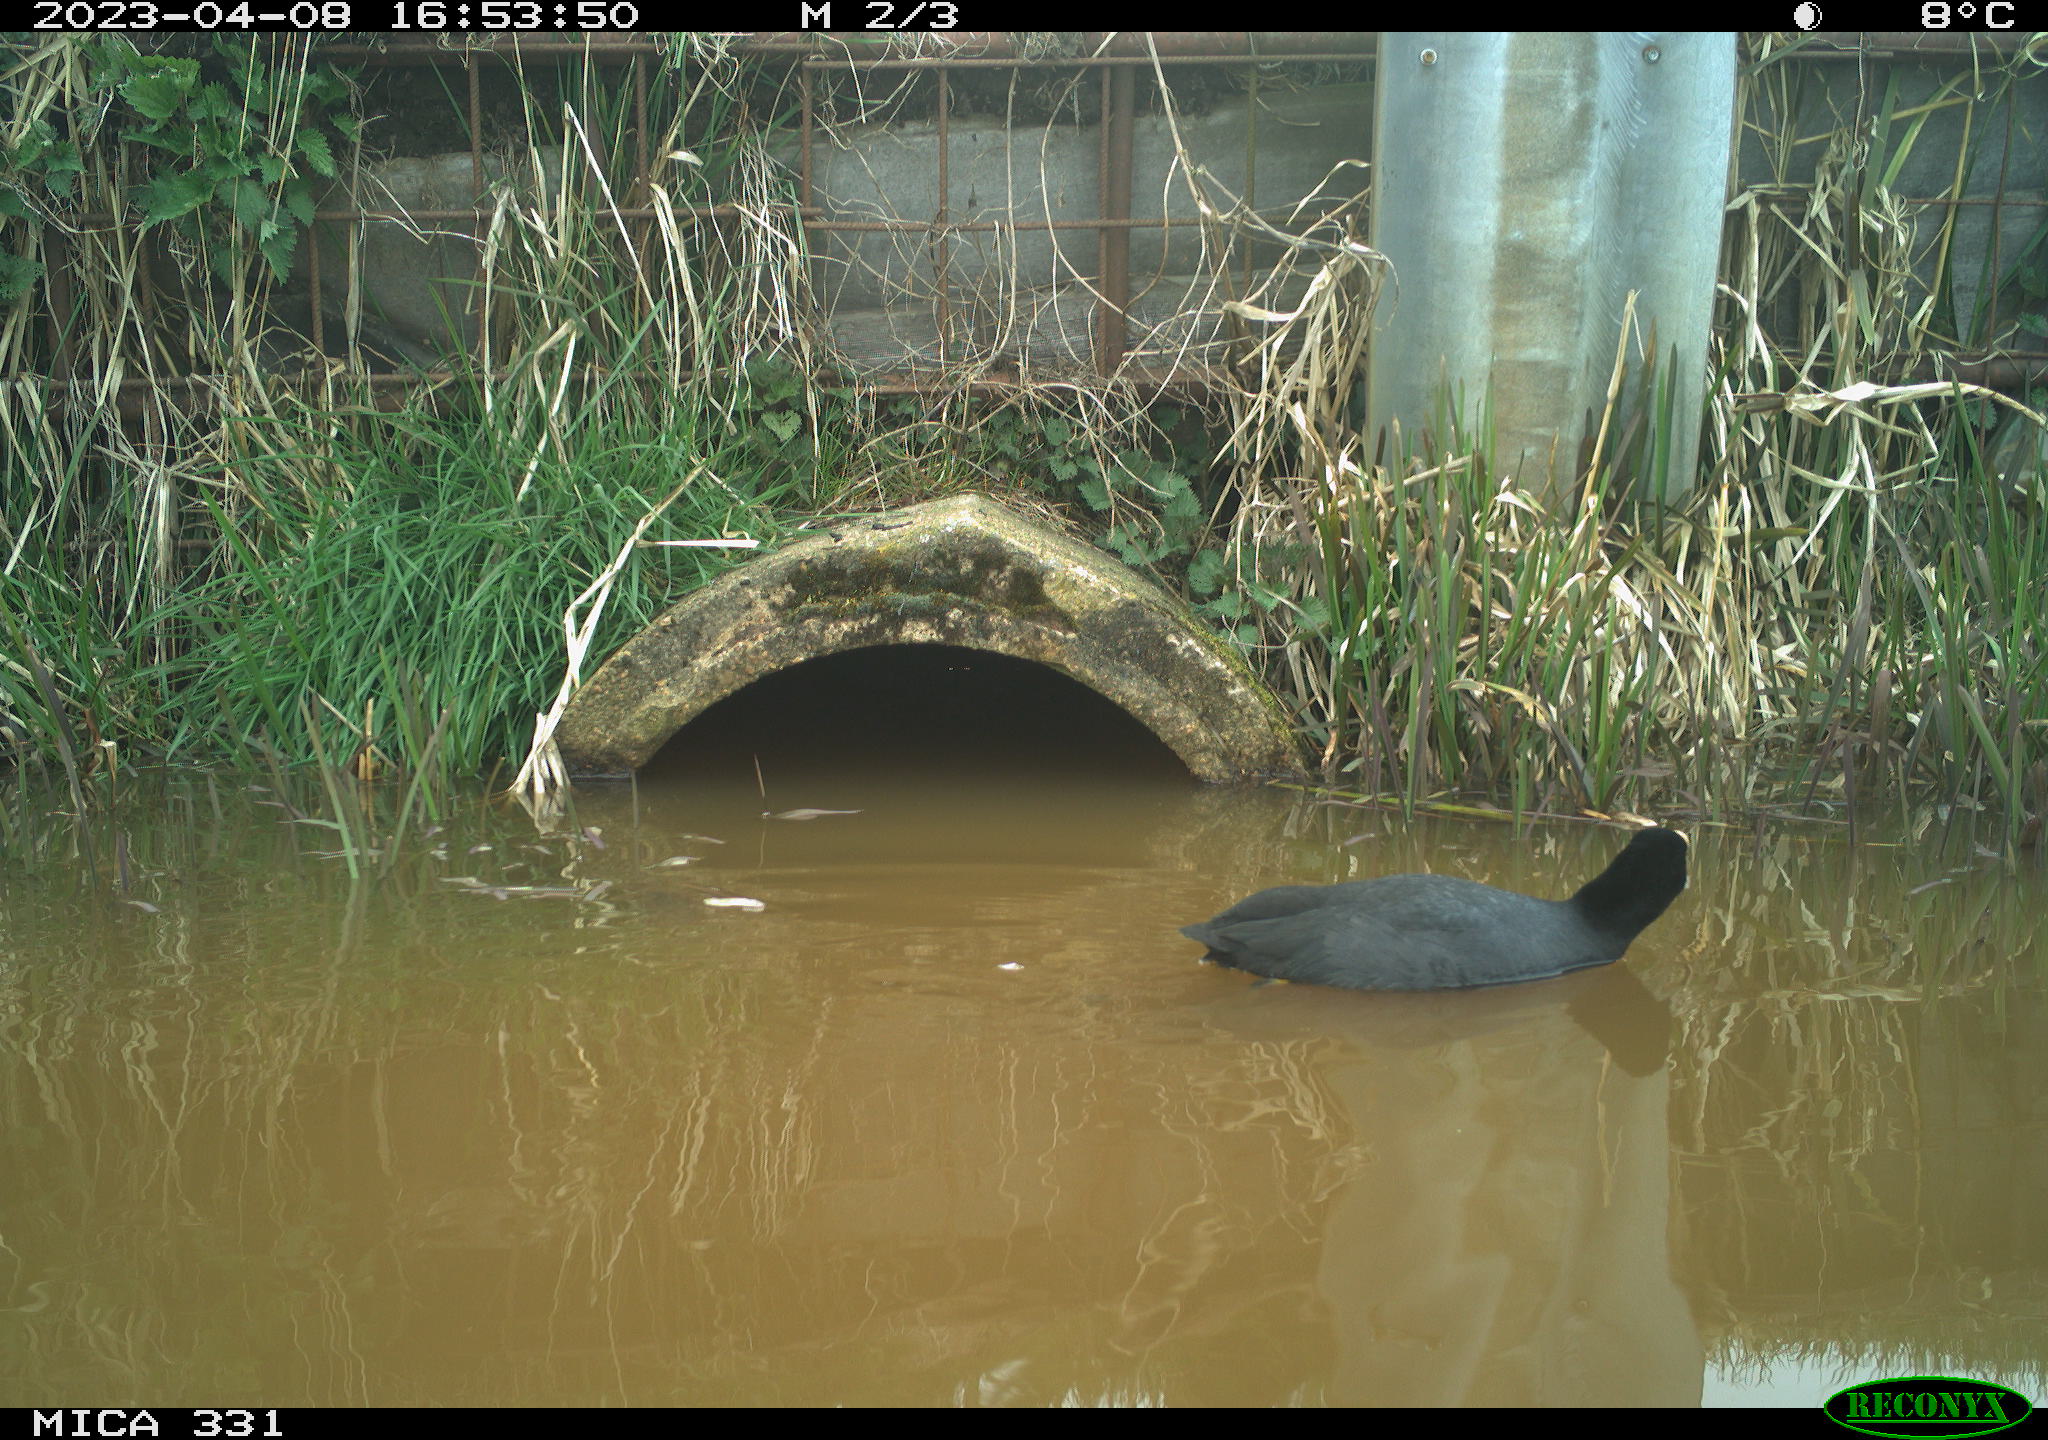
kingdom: Animalia
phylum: Chordata
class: Aves
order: Gruiformes
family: Rallidae
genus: Fulica
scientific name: Fulica atra
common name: Eurasian coot
